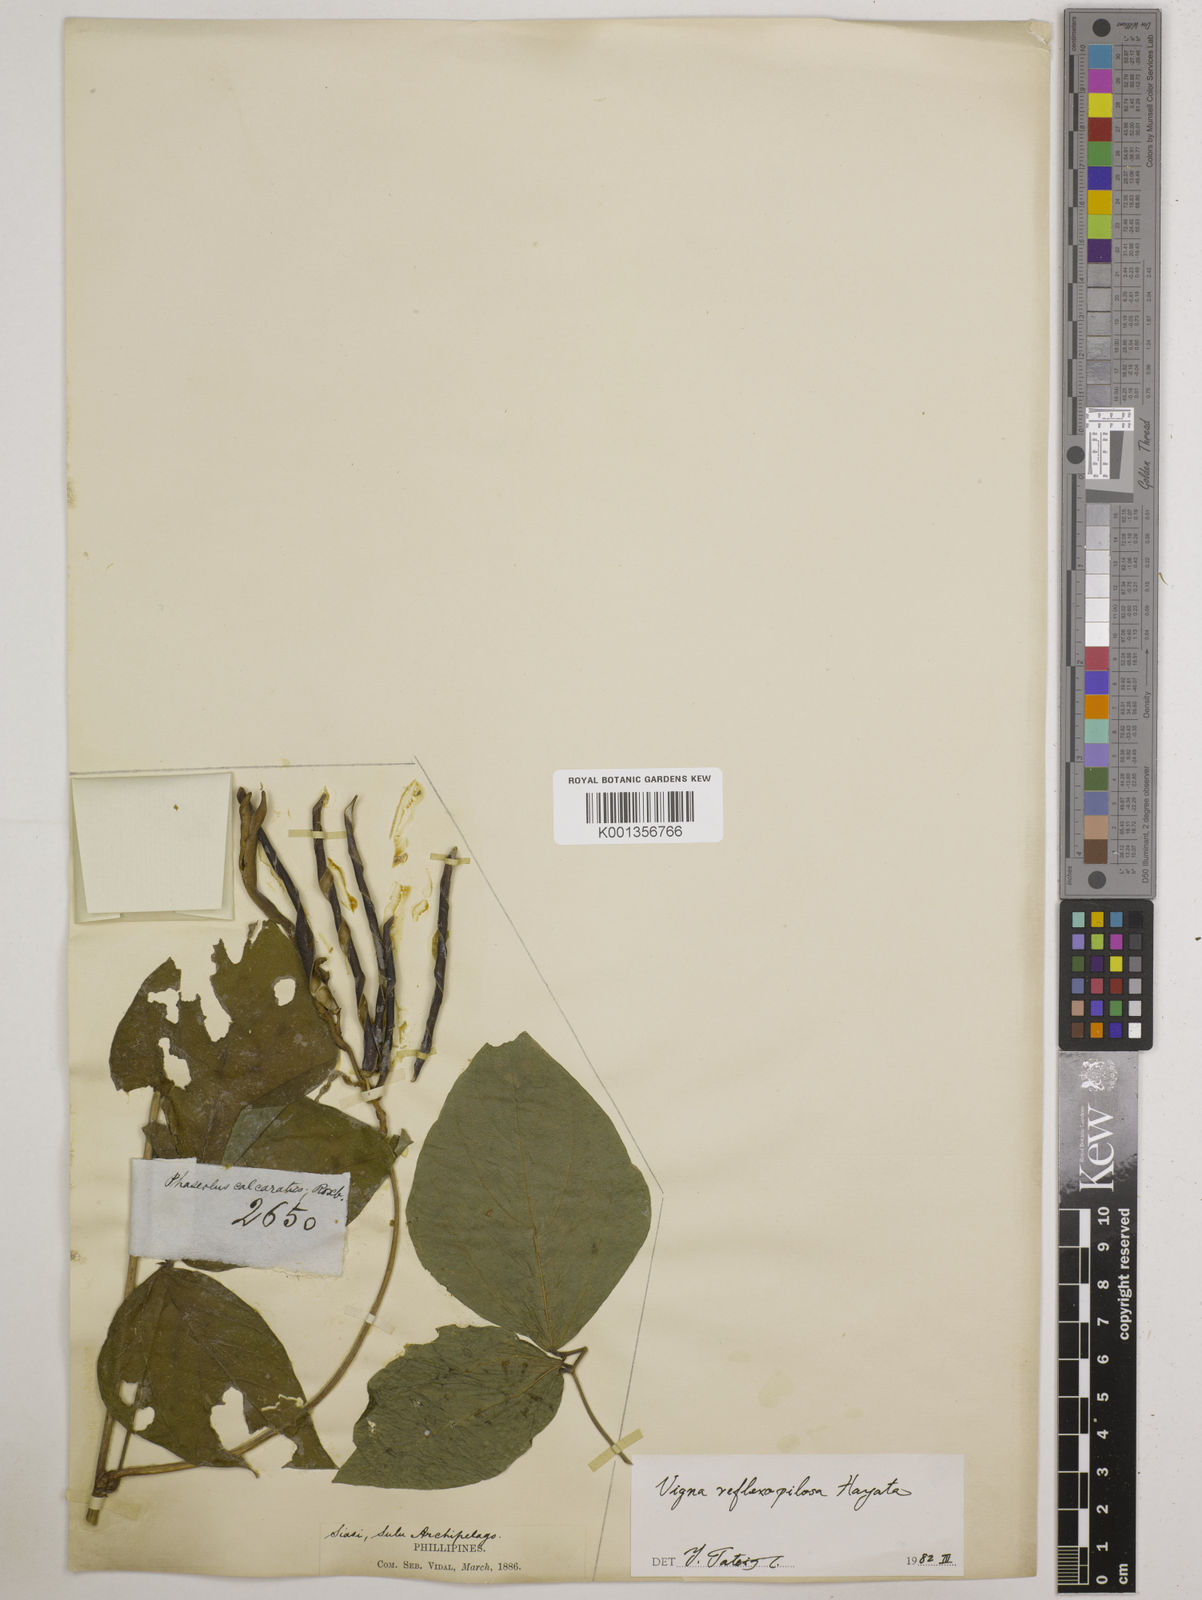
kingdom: Plantae
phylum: Tracheophyta
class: Magnoliopsida
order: Fabales
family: Fabaceae
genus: Vigna
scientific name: Vigna reflexopilosa
